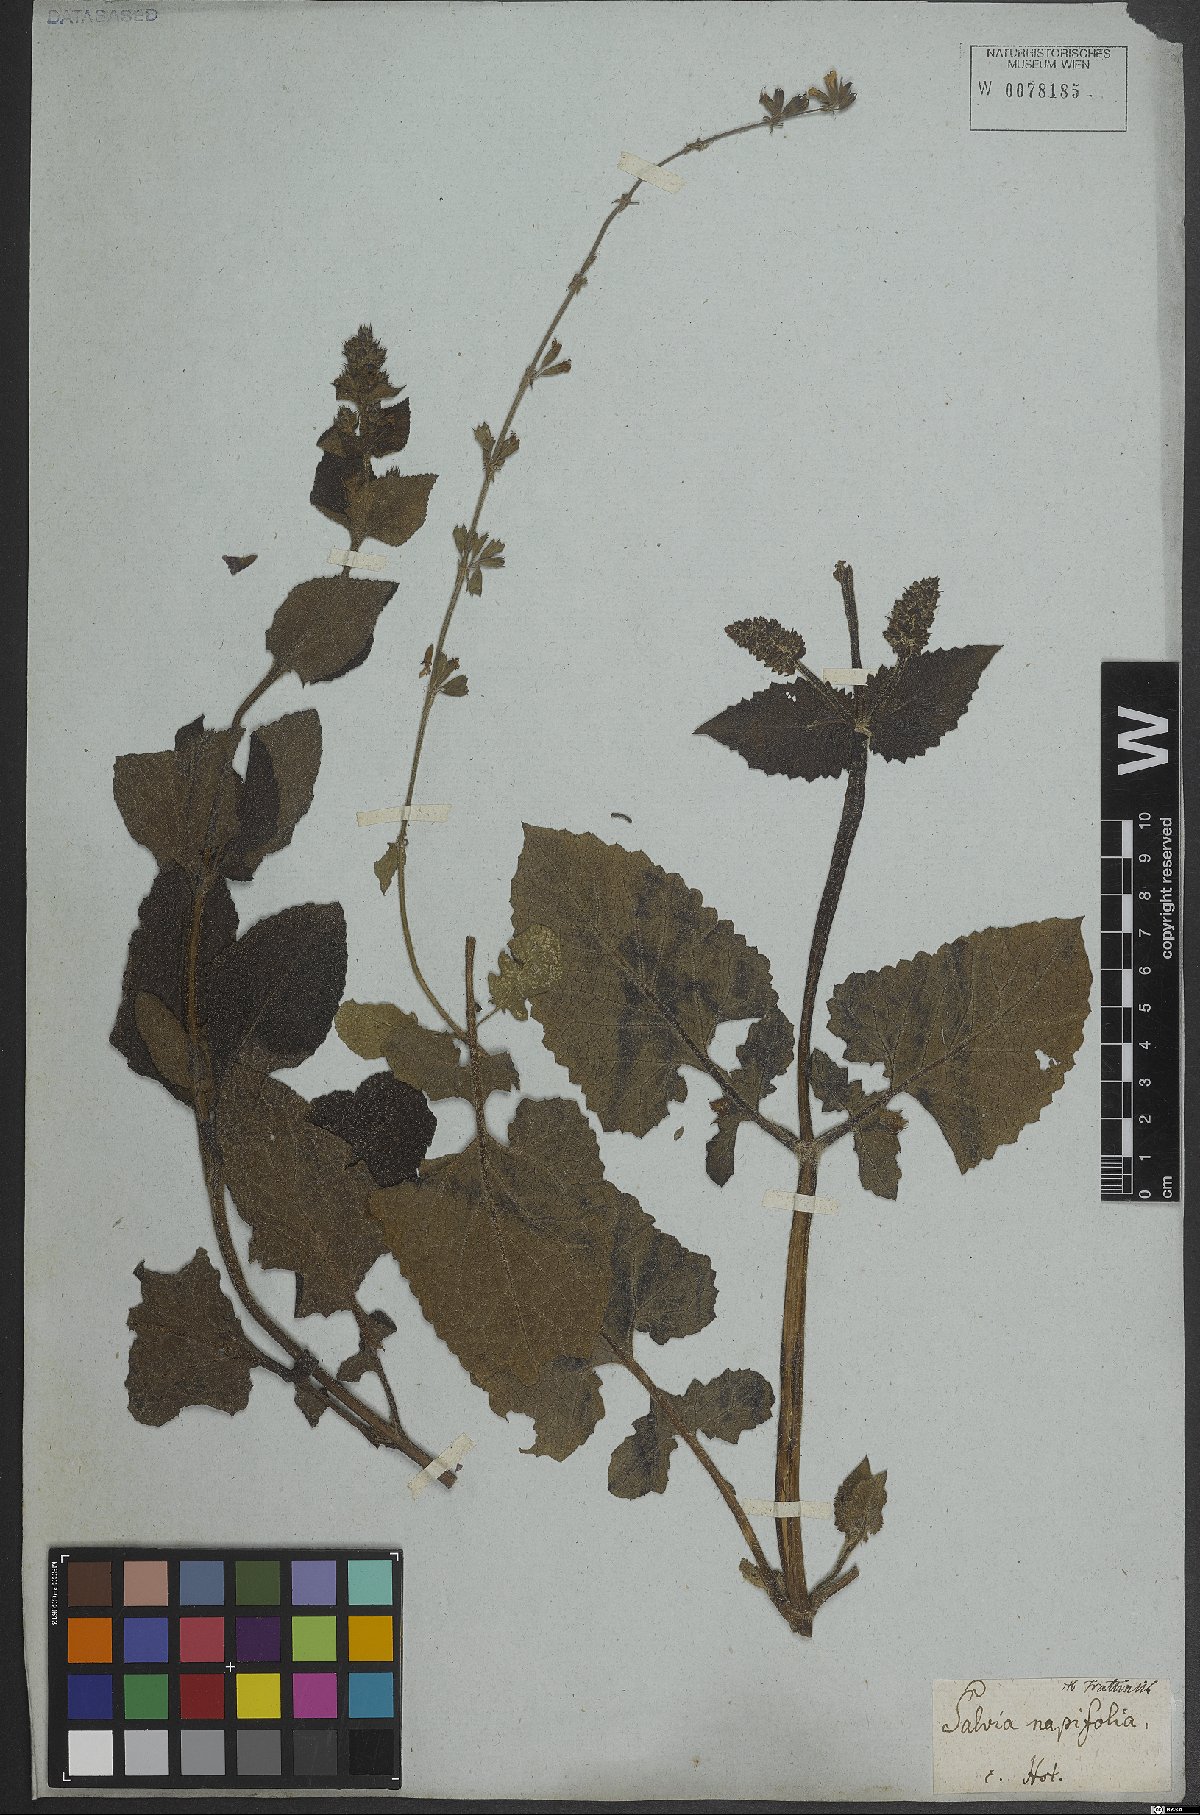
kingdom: Plantae
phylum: Tracheophyta
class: Magnoliopsida
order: Lamiales
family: Lamiaceae
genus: Salvia
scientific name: Salvia napifolia
